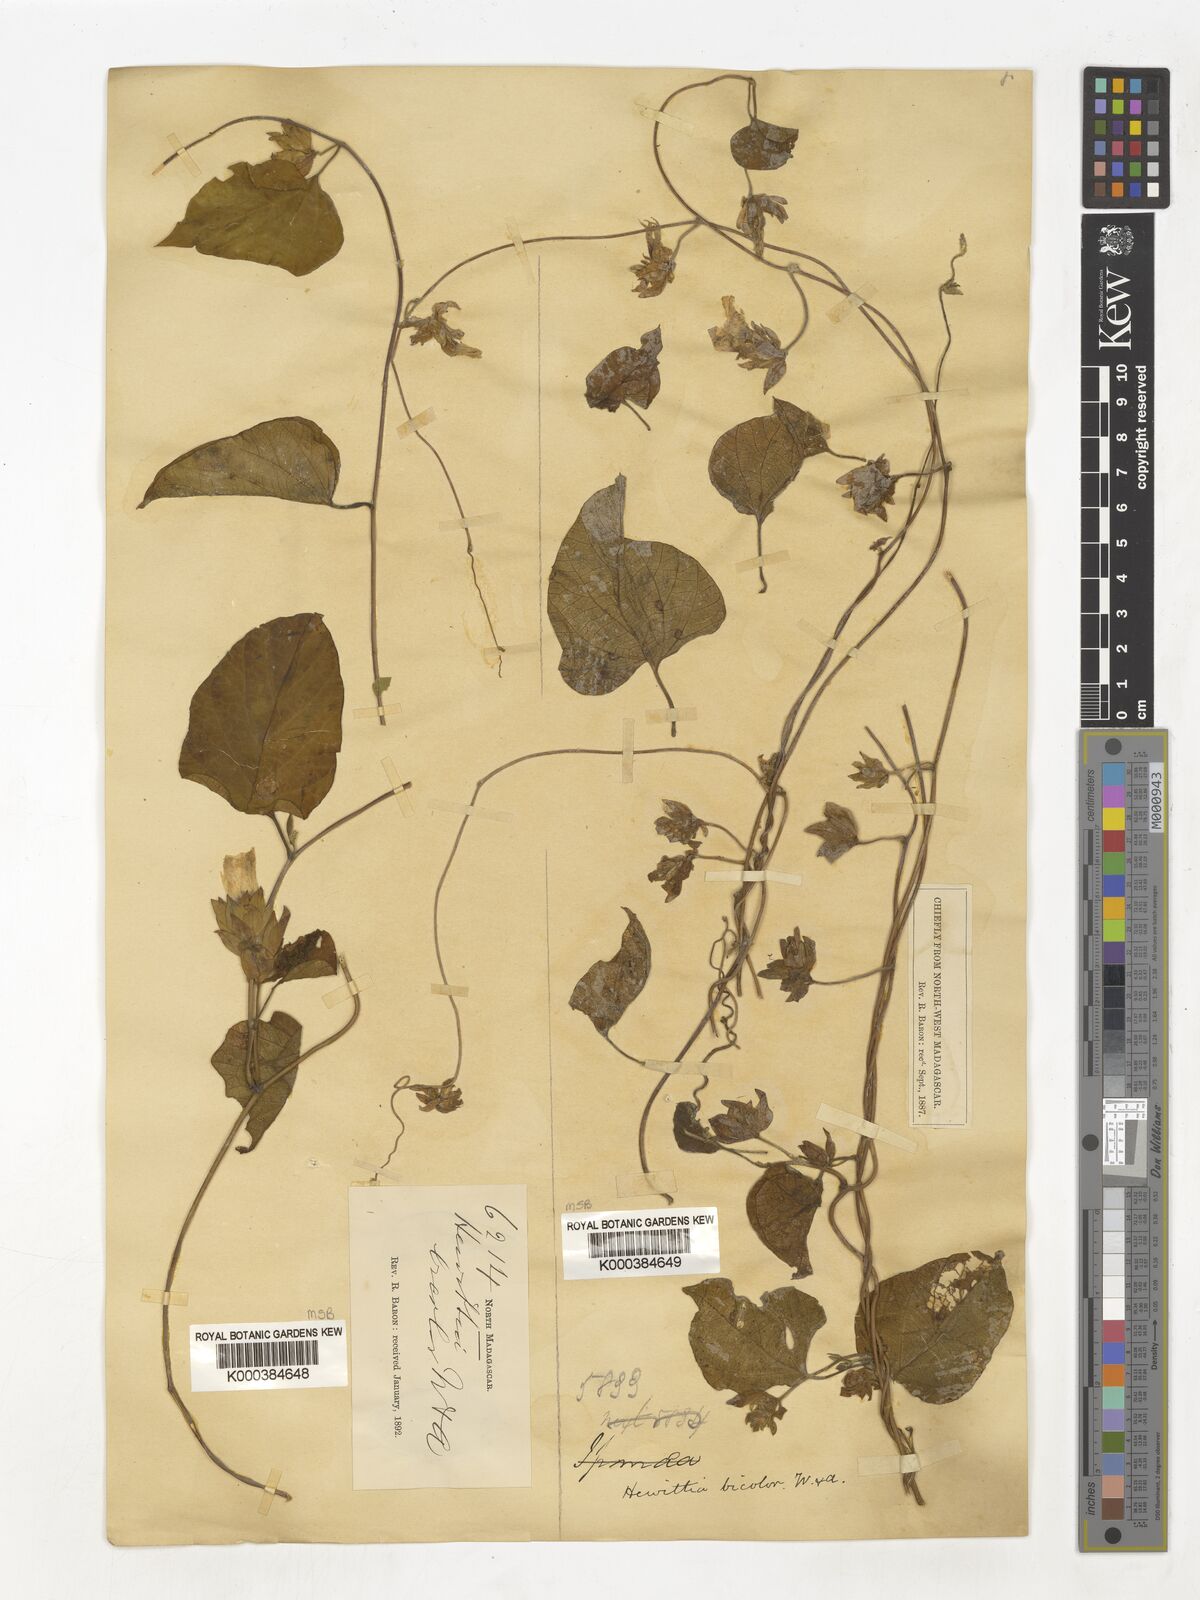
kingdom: Plantae
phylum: Tracheophyta
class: Magnoliopsida
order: Solanales
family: Convolvulaceae
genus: Hewittia
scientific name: Hewittia
